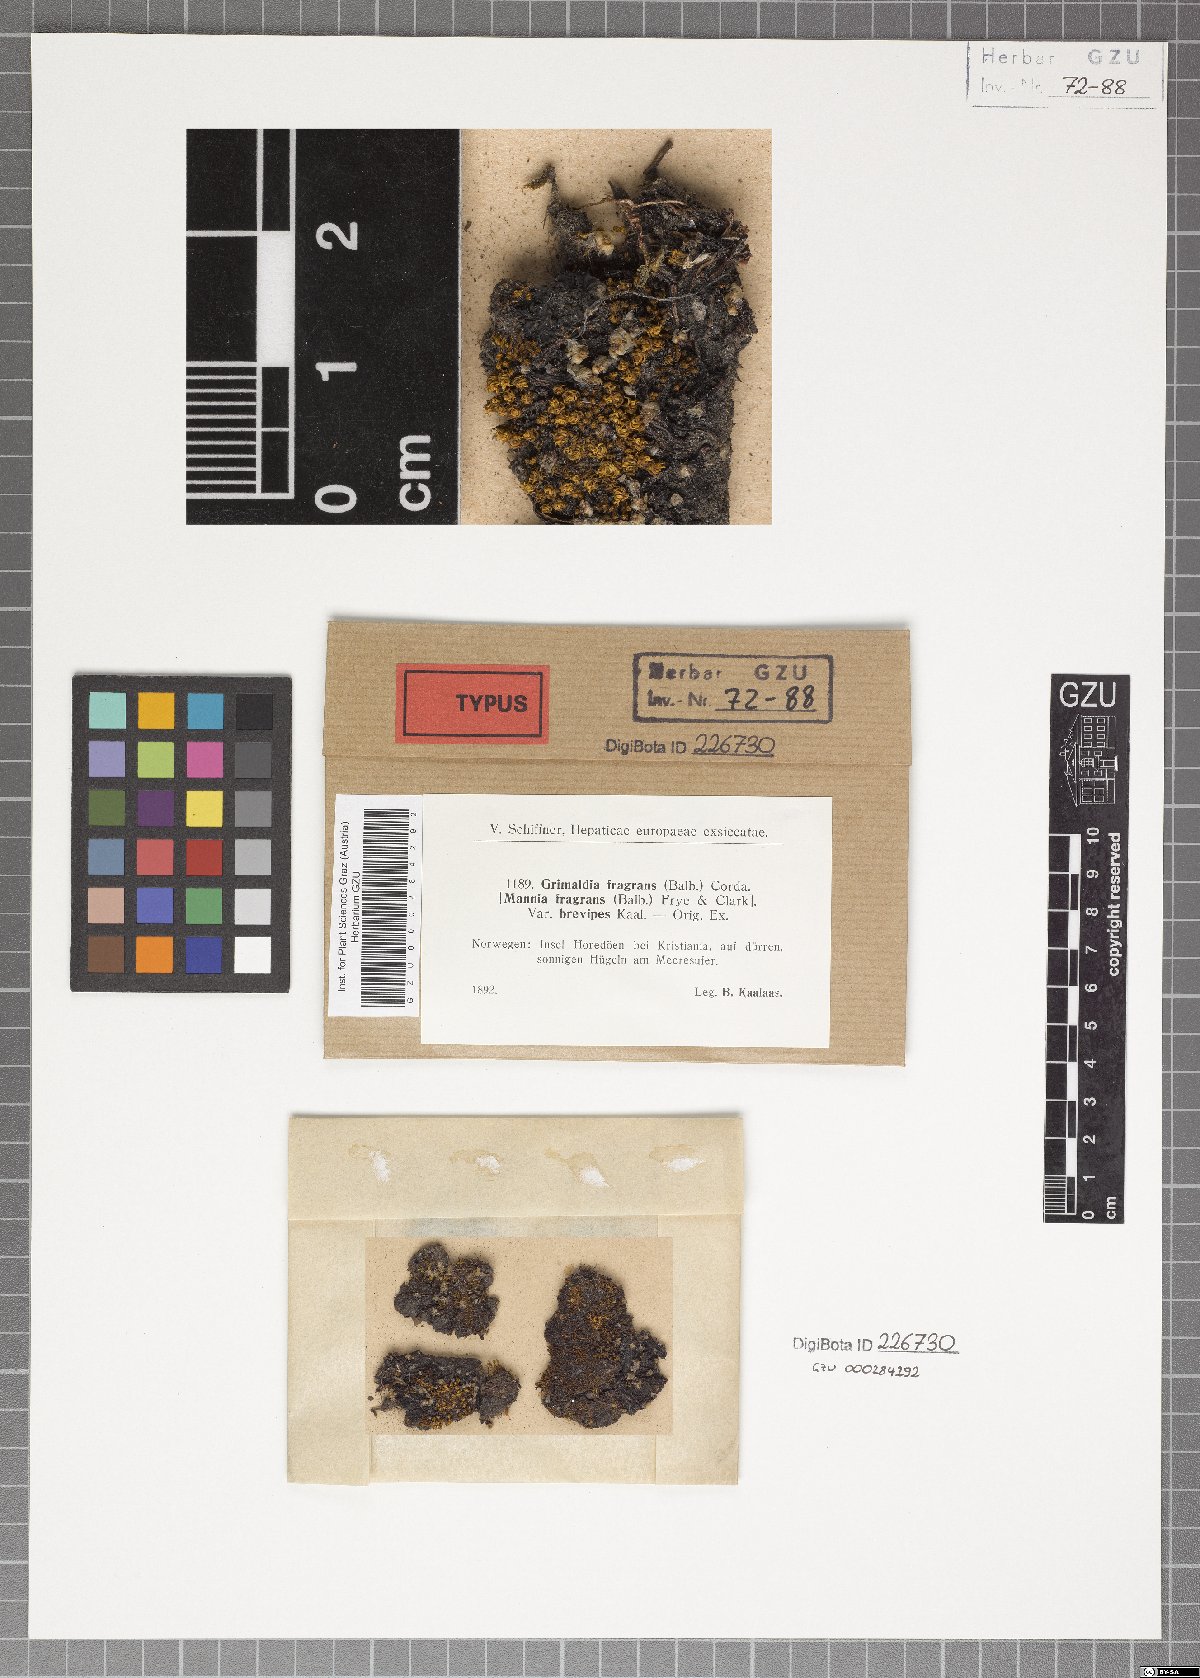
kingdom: Plantae
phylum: Marchantiophyta
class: Marchantiopsida
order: Marchantiales
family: Aytoniaceae
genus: Mannia
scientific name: Mannia fragrans
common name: Fragrant macewort
